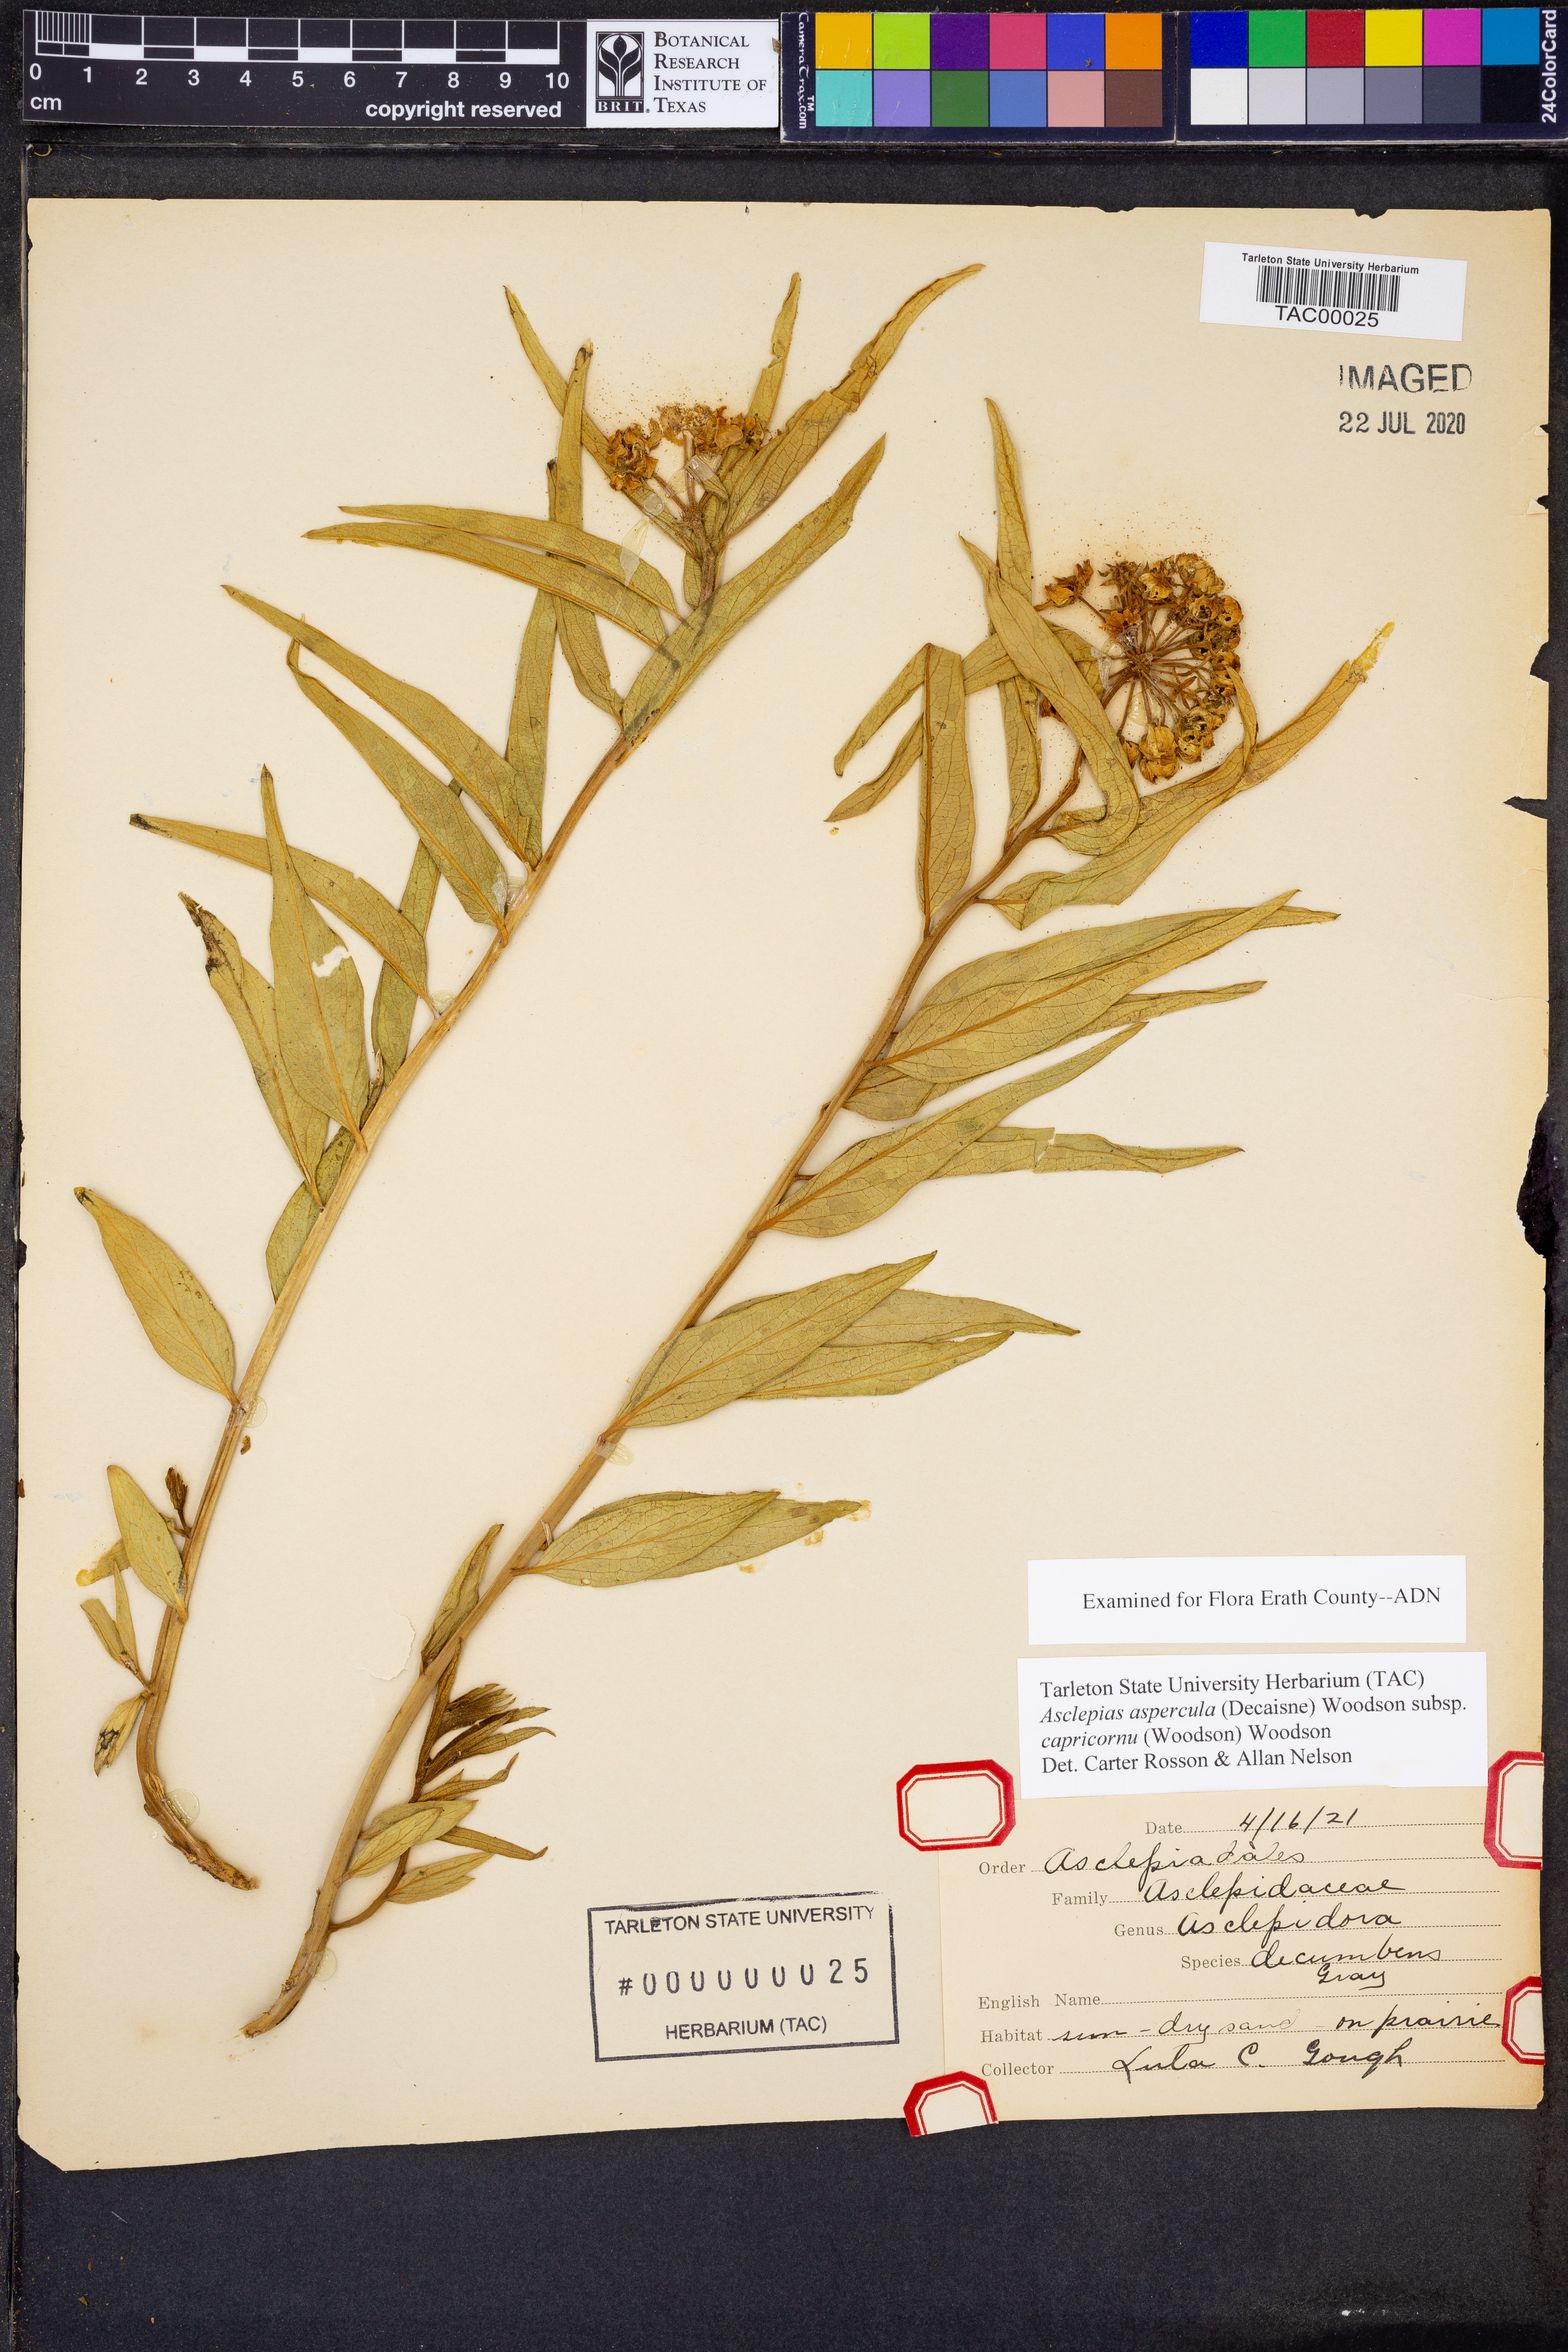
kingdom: Plantae
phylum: Tracheophyta
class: Magnoliopsida
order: Gentianales
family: Apocynaceae
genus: Asclepias
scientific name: Asclepias asperula
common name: Antelope horns
